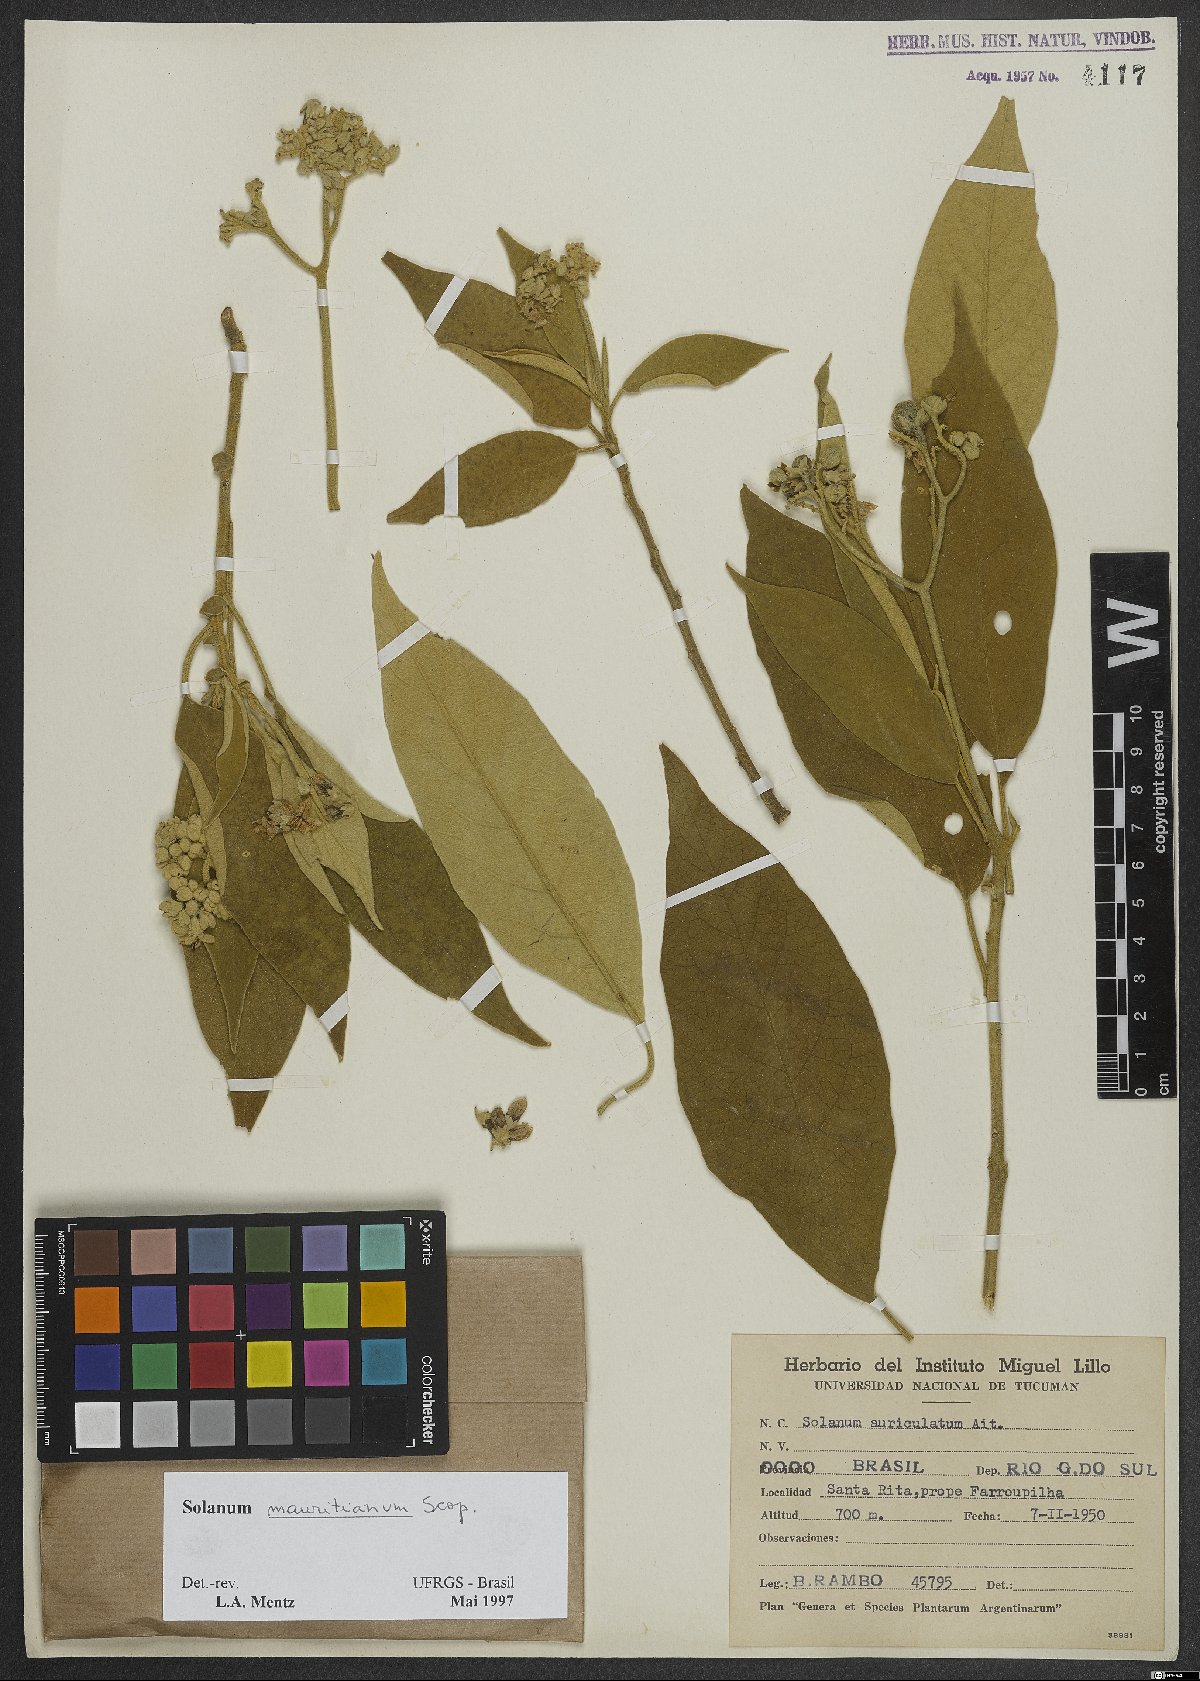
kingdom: Plantae
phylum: Tracheophyta
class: Magnoliopsida
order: Solanales
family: Solanaceae
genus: Solanum
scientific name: Solanum mauritianum
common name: Earleaf nightshade
